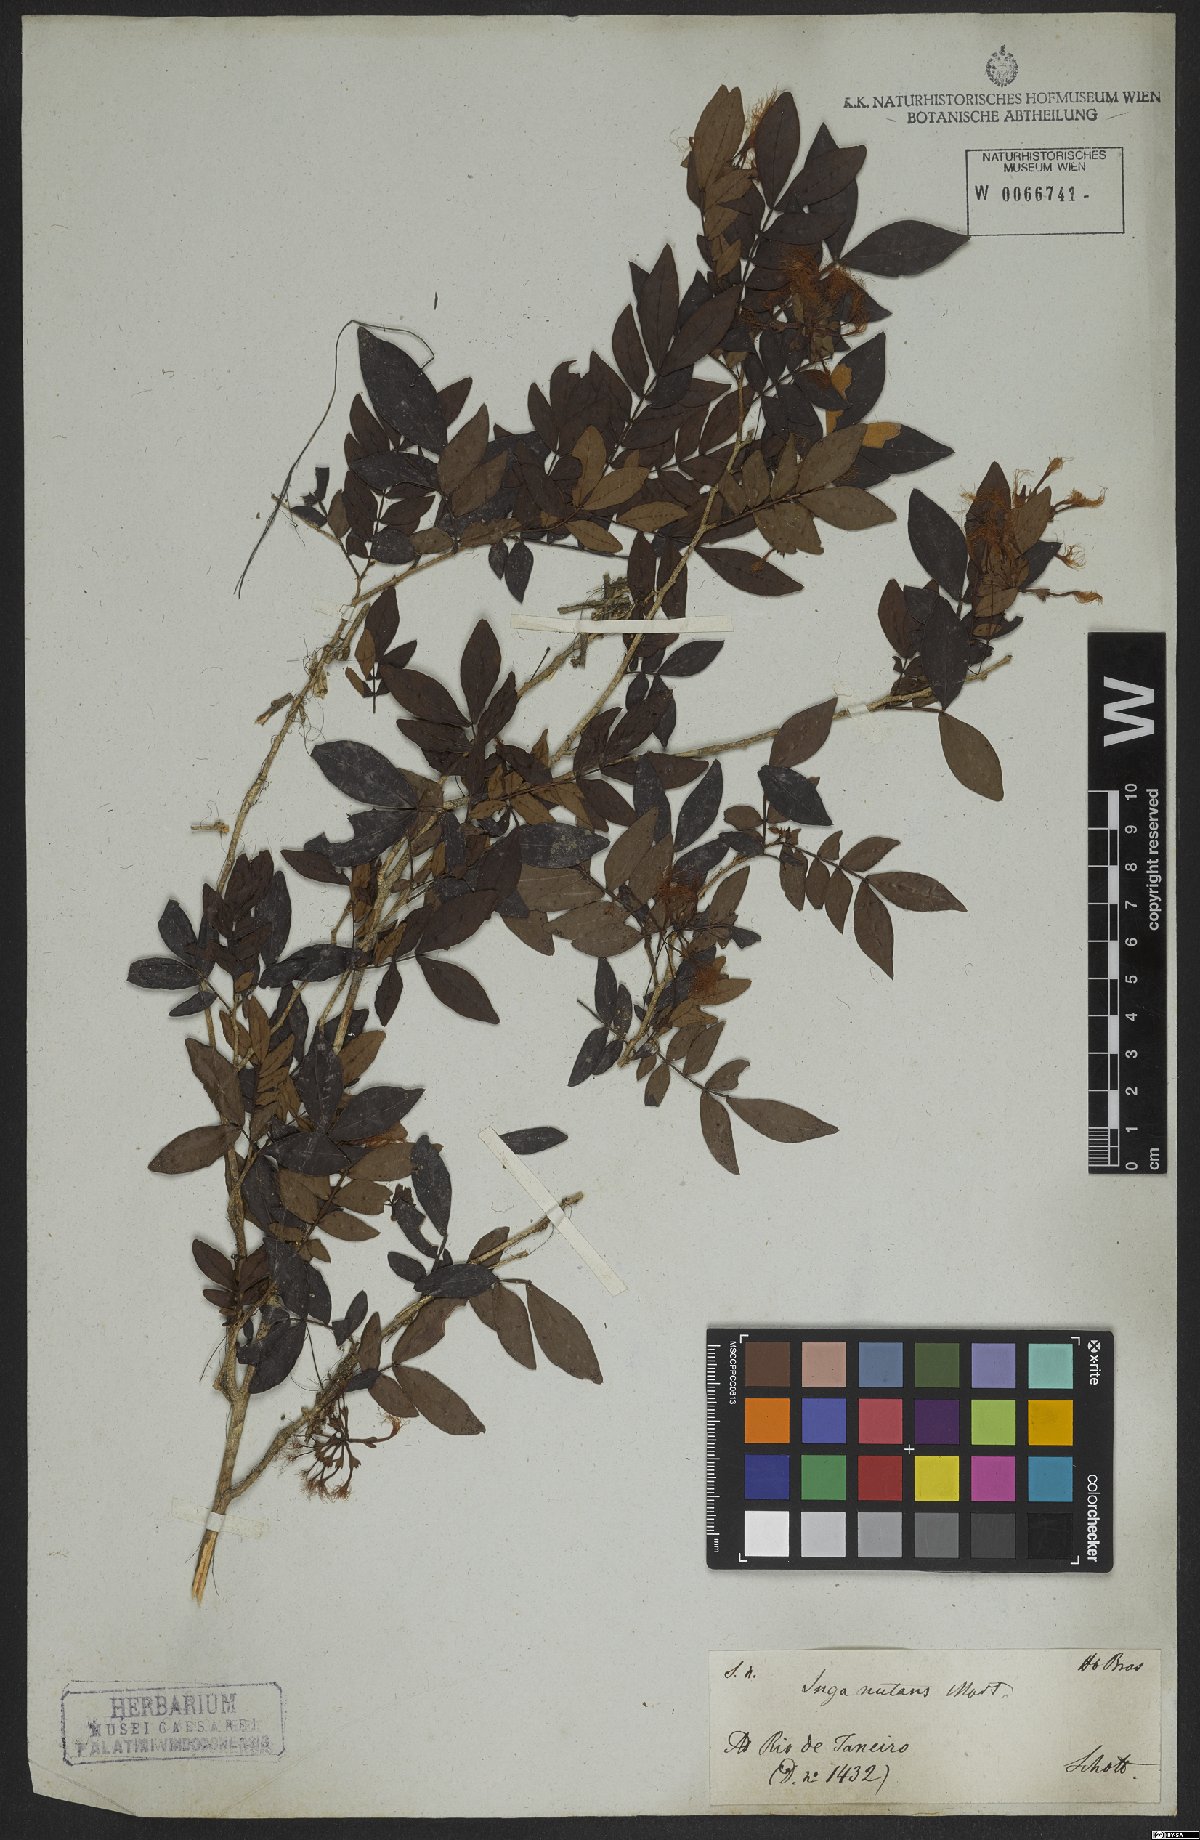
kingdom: Plantae
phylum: Tracheophyta
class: Magnoliopsida
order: Fabales
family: Fabaceae
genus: Inga
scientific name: Inga nutans
